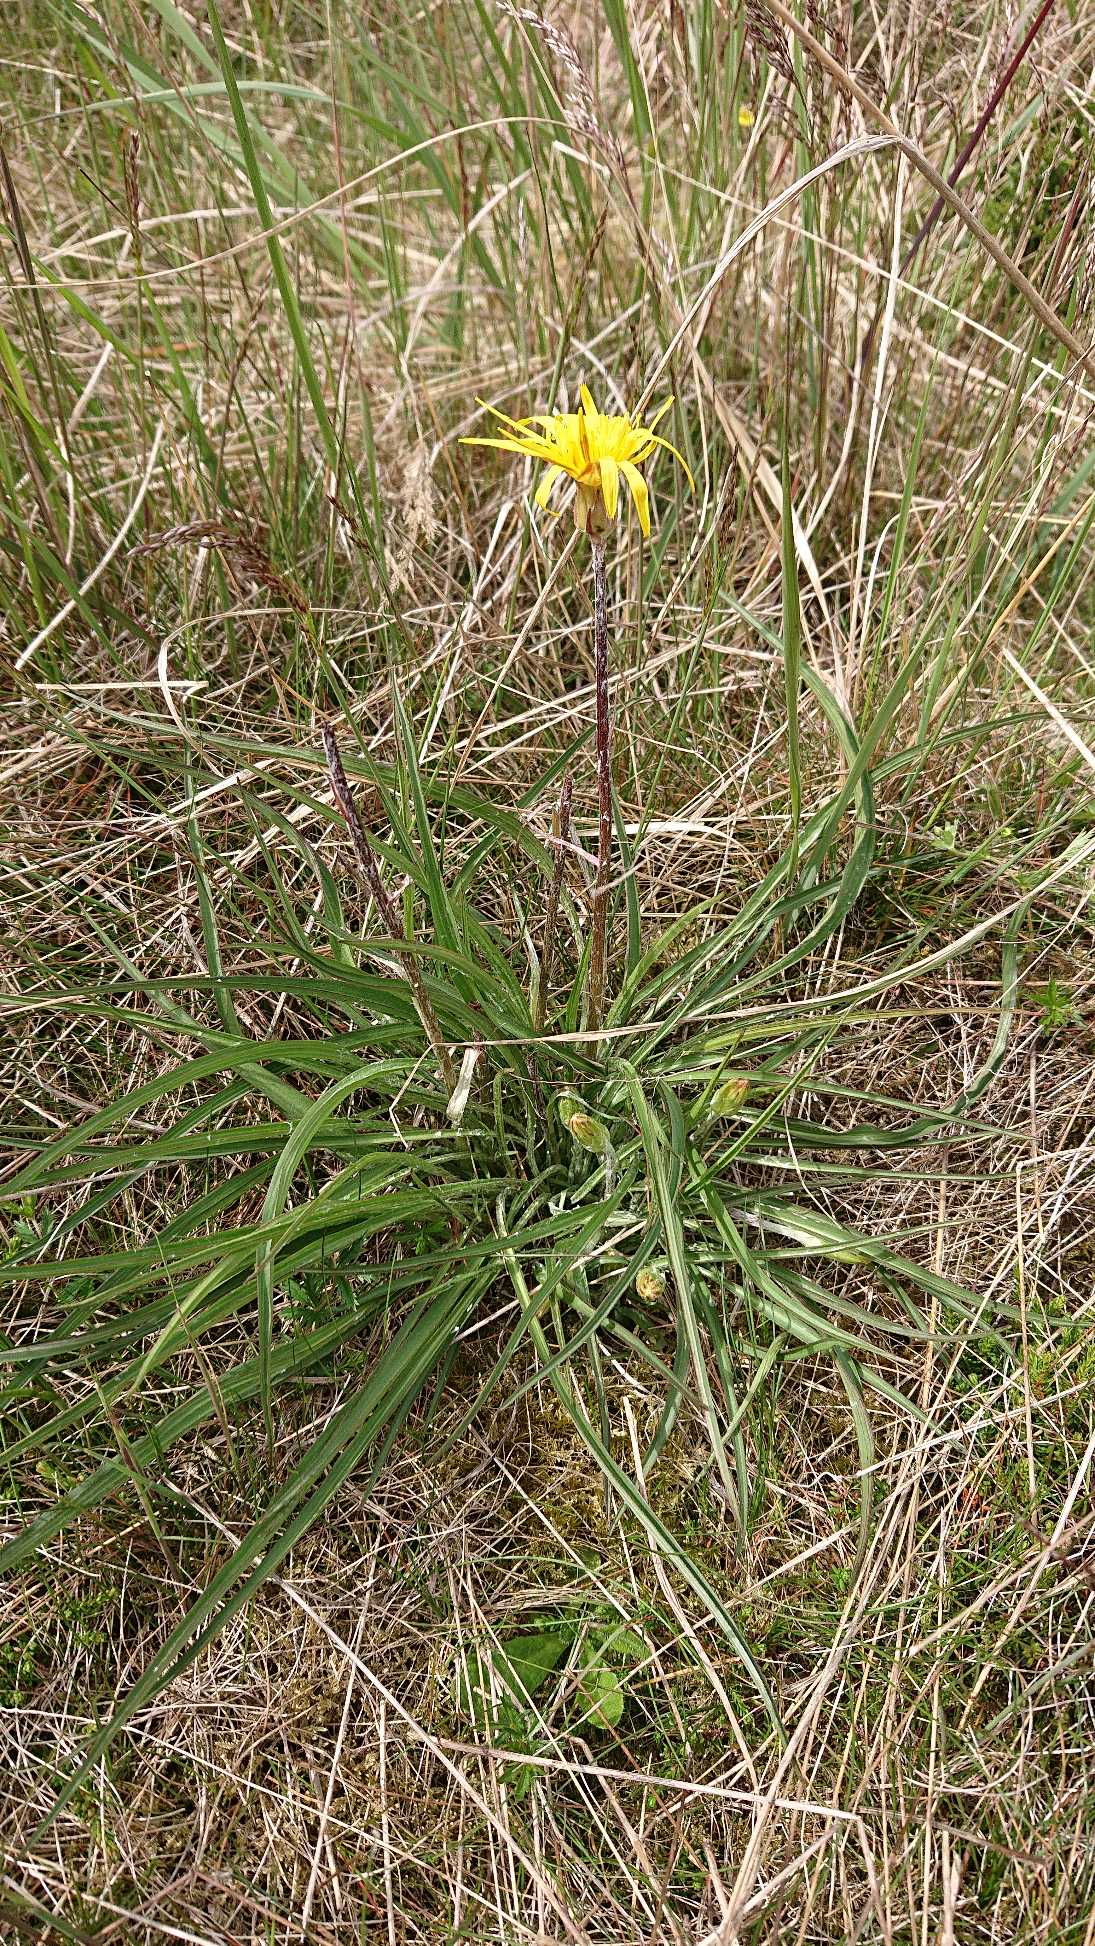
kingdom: Plantae
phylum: Tracheophyta
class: Magnoliopsida
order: Asterales
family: Asteraceae
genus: Scorzonera
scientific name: Scorzonera humilis
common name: Lav skorsoner
